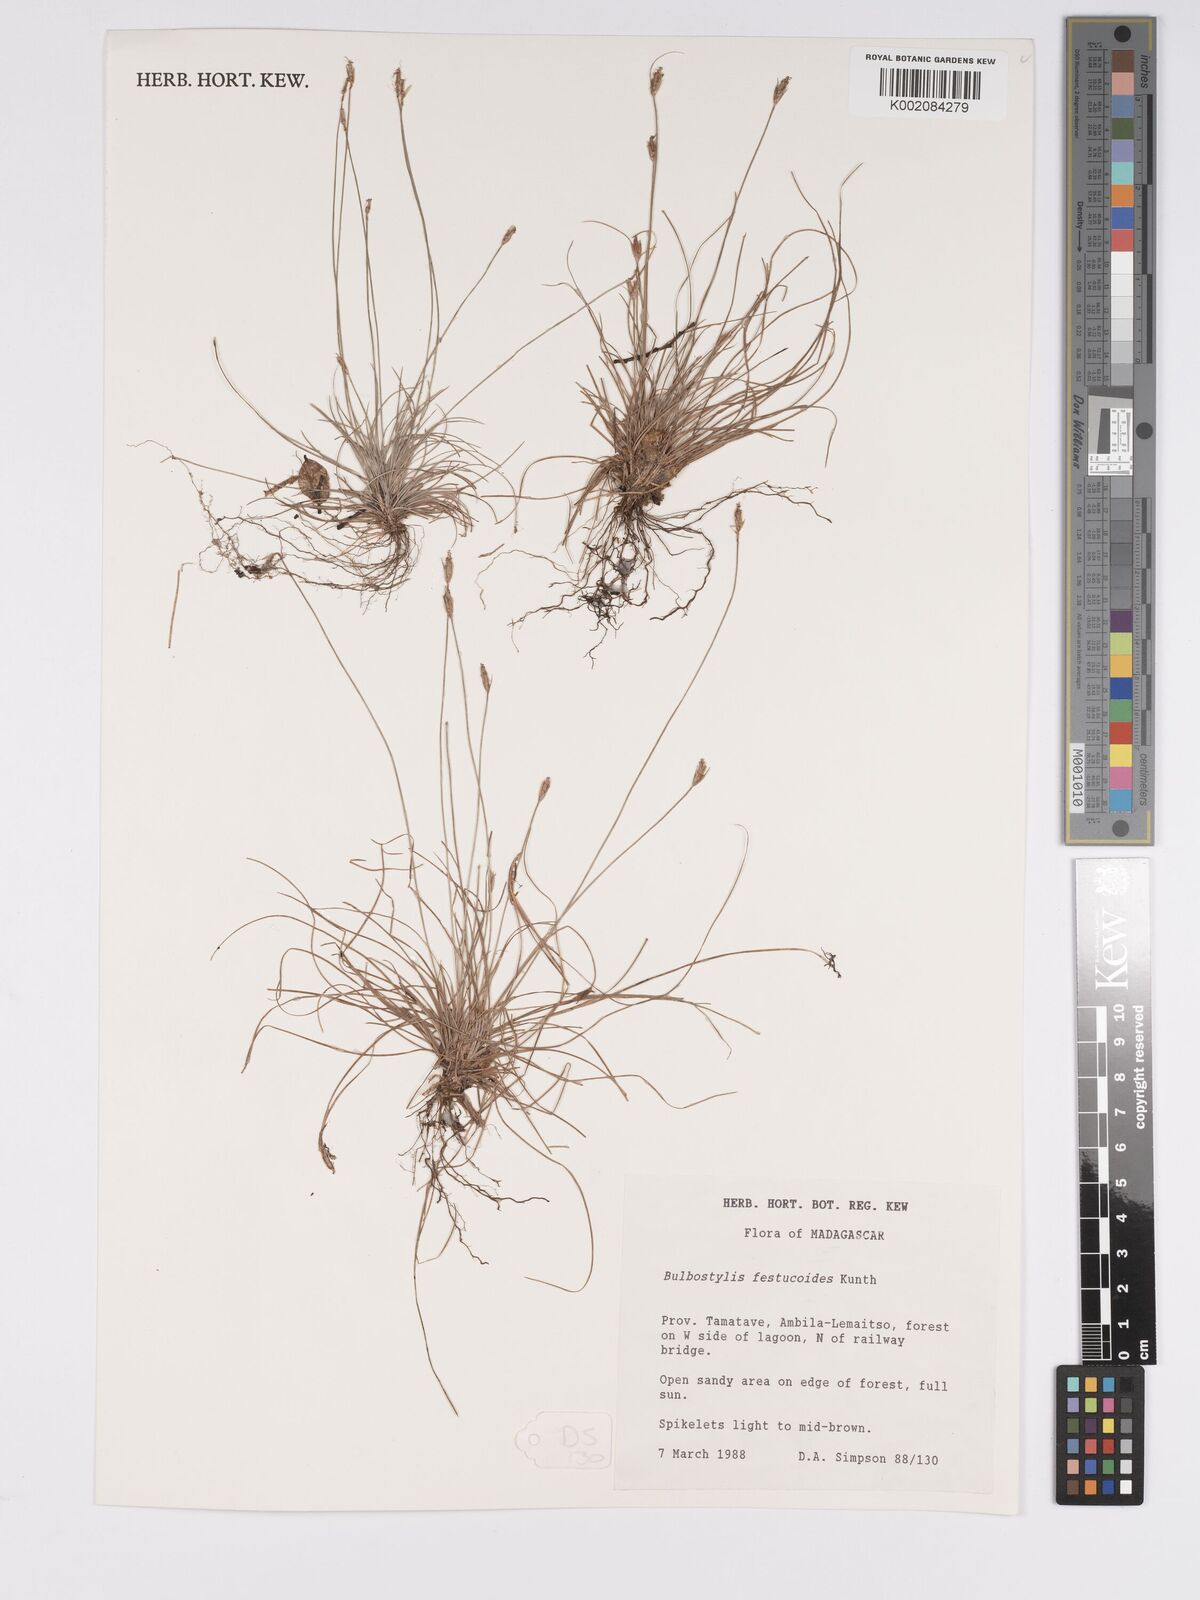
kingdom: Plantae
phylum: Tracheophyta
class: Liliopsida
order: Poales
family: Cyperaceae
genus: Bulbostylis
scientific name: Bulbostylis festucoides
